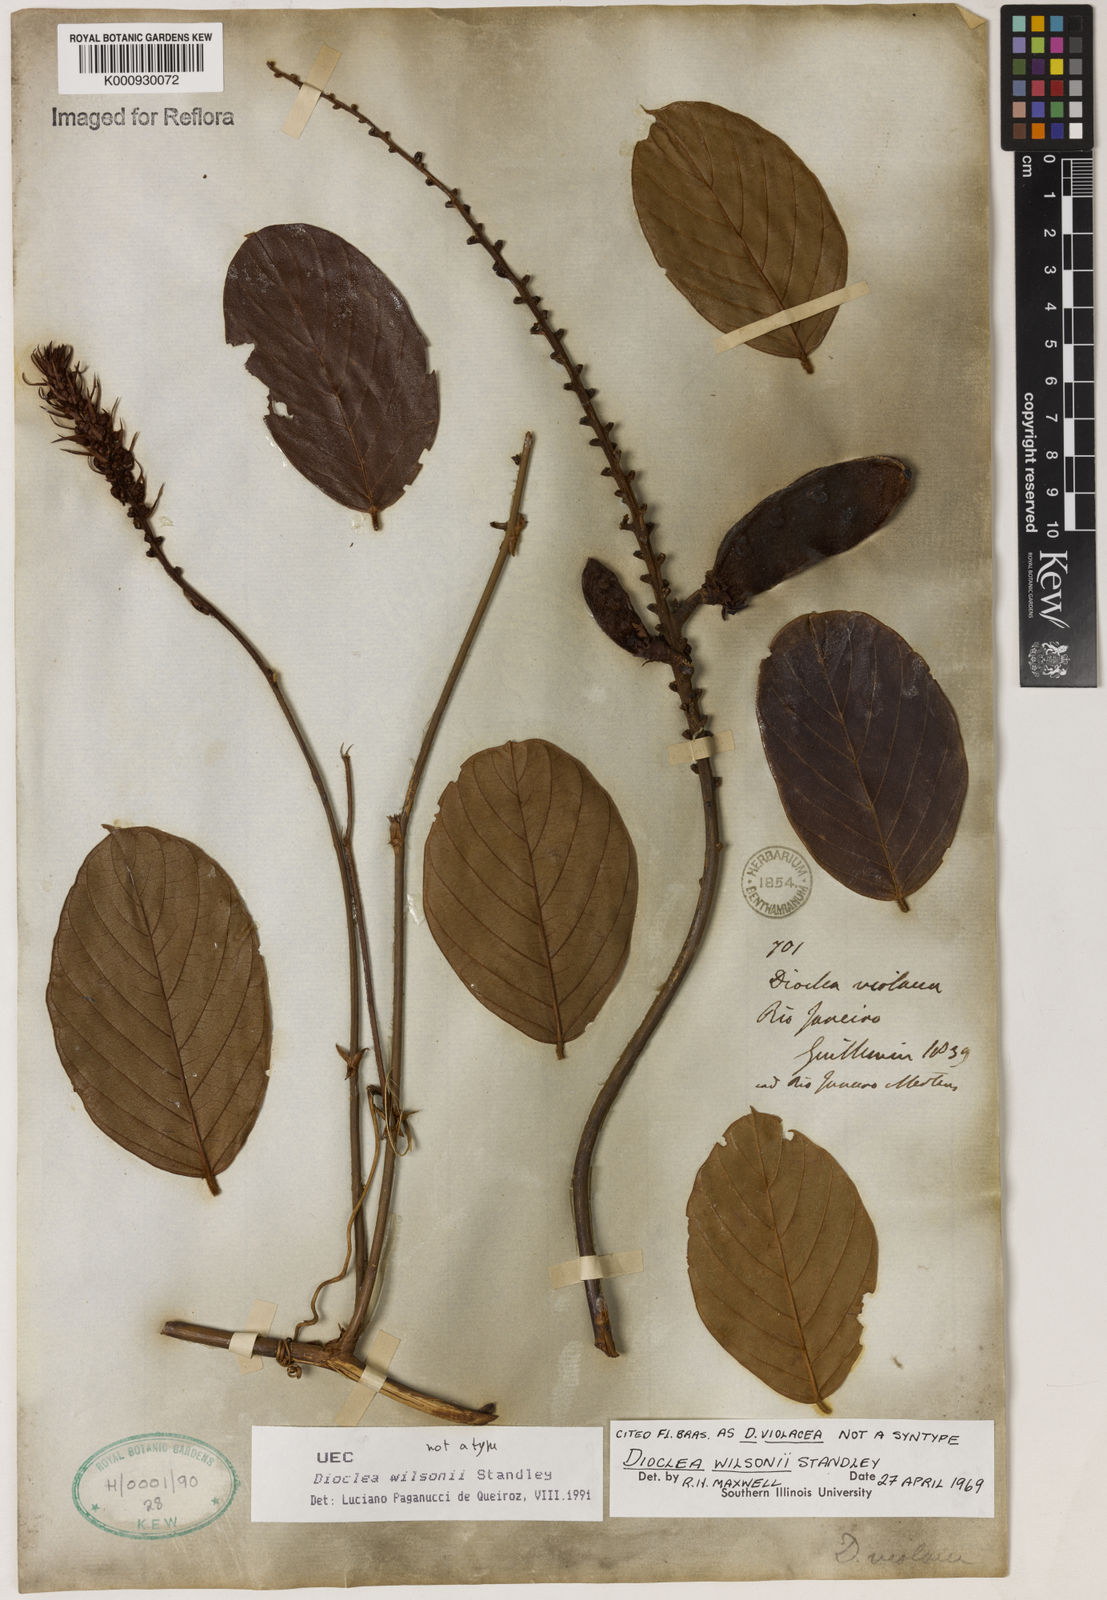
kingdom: Plantae
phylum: Tracheophyta
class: Magnoliopsida
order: Fabales
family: Fabaceae
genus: Macropsychanthus
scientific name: Macropsychanthus wilsonii
